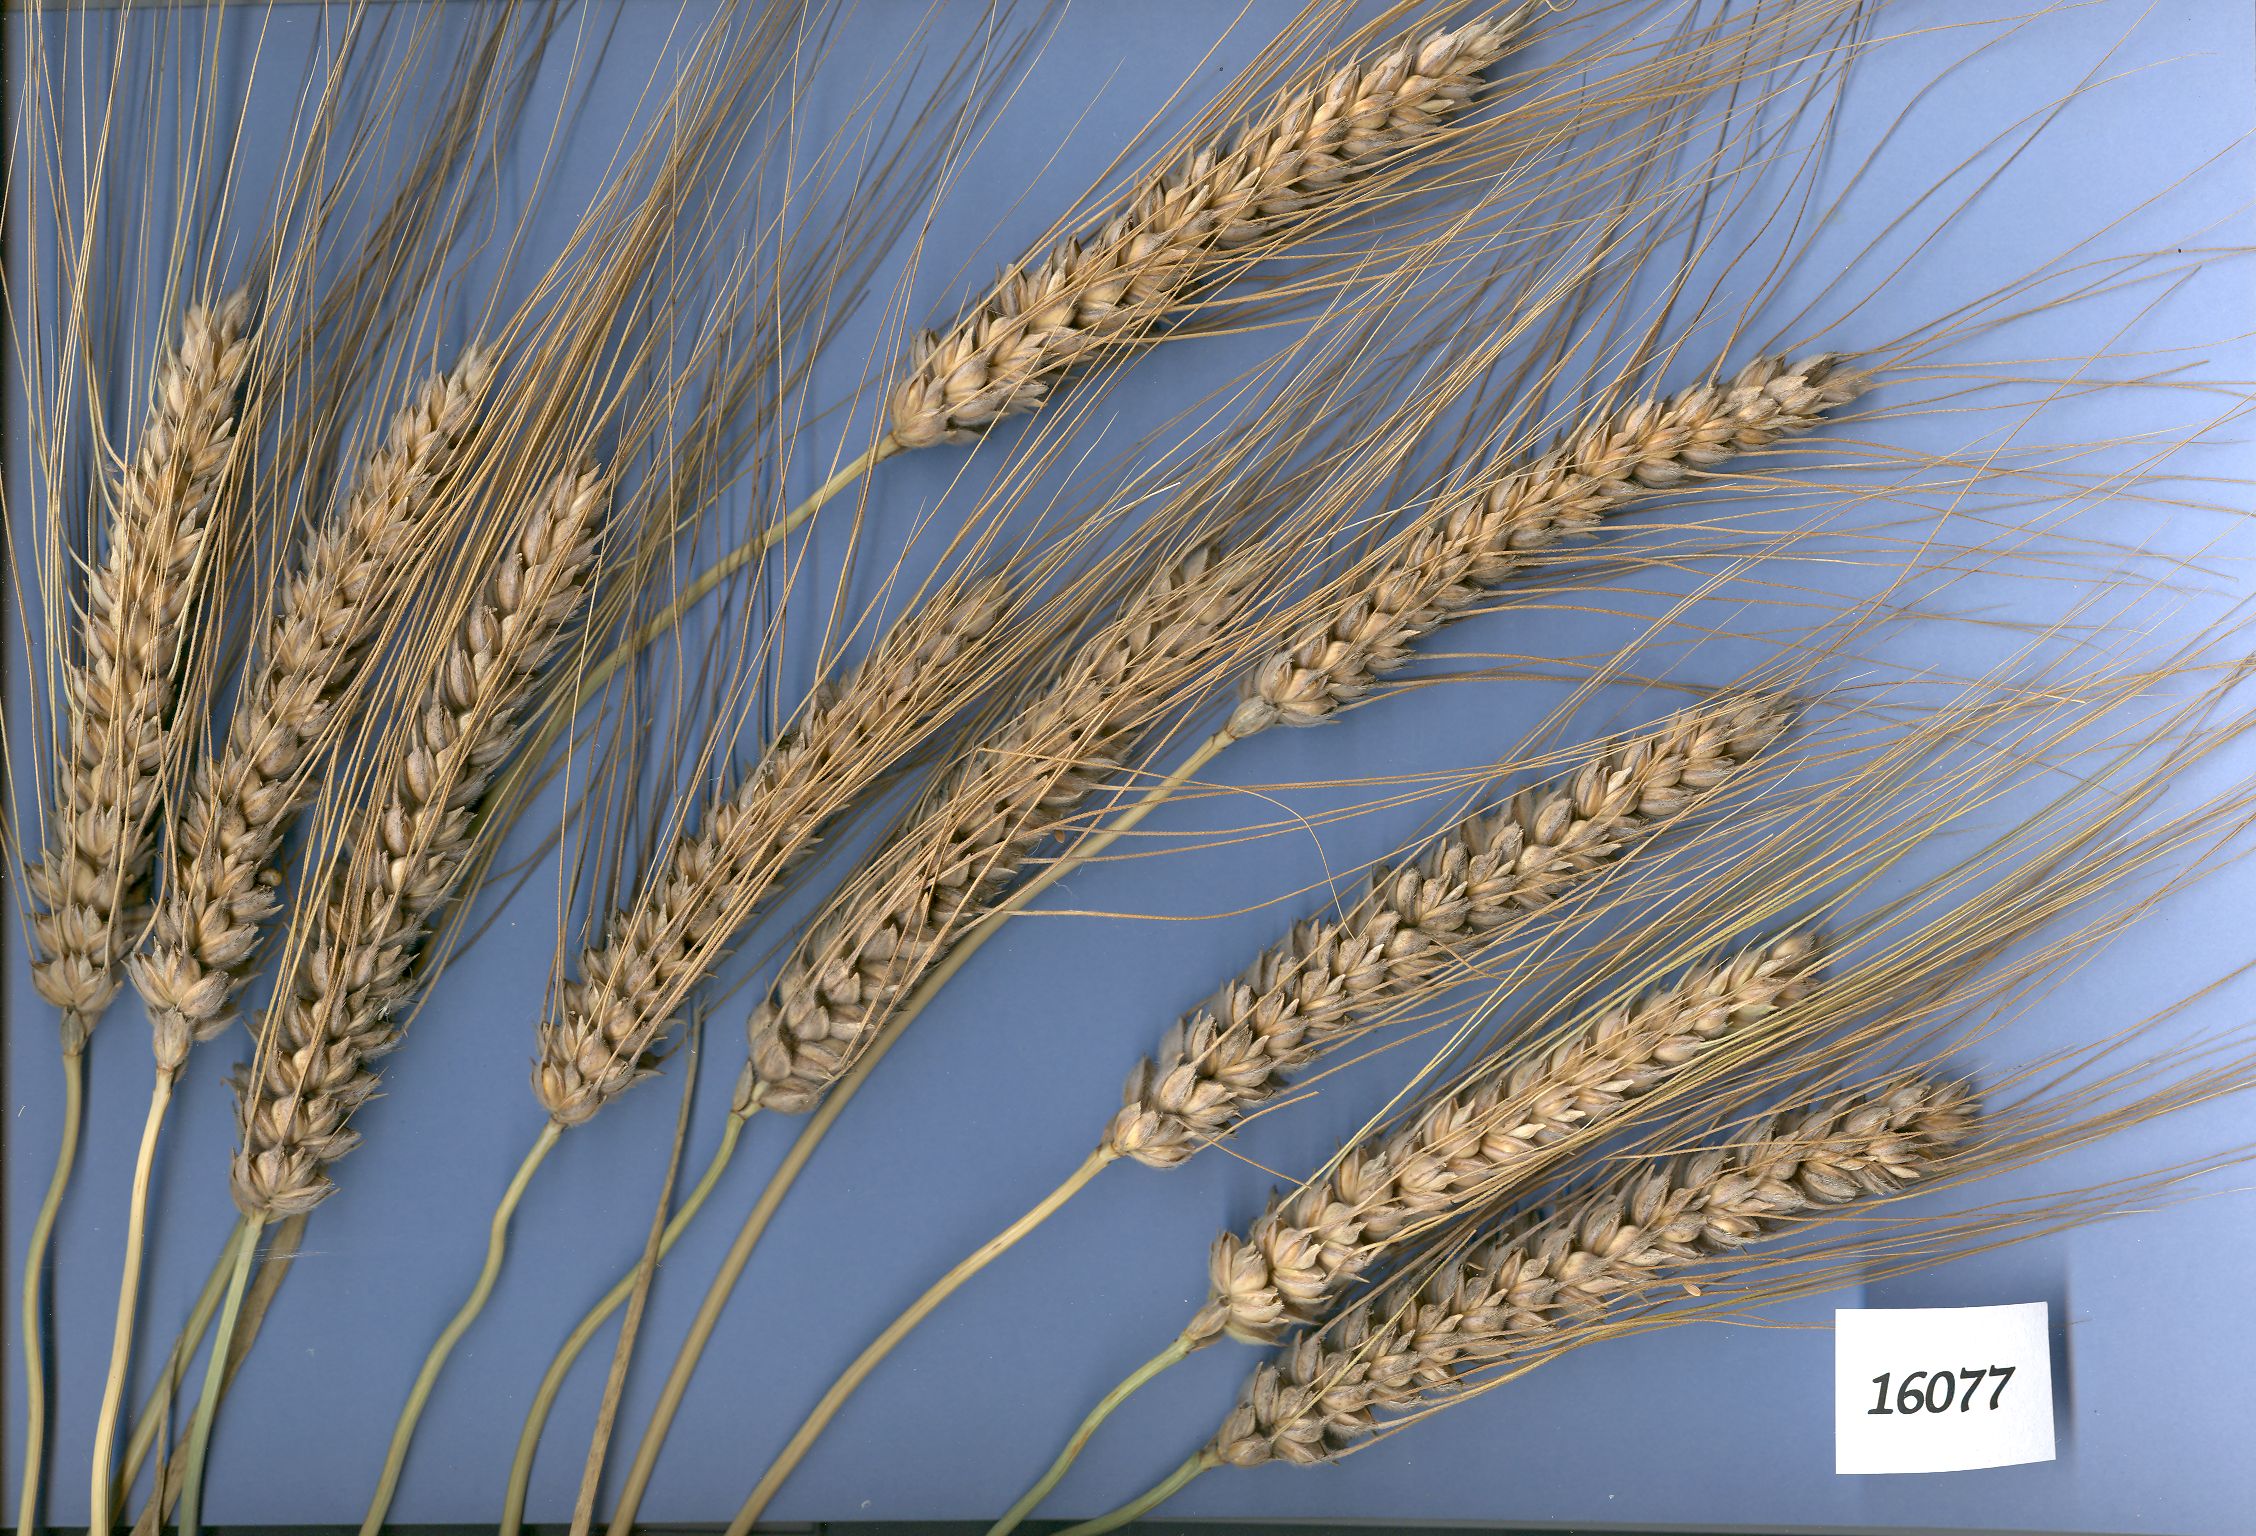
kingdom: Plantae
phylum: Tracheophyta
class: Liliopsida
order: Poales
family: Poaceae
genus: Triticum
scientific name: Triticum aestivum
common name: Common wheat
